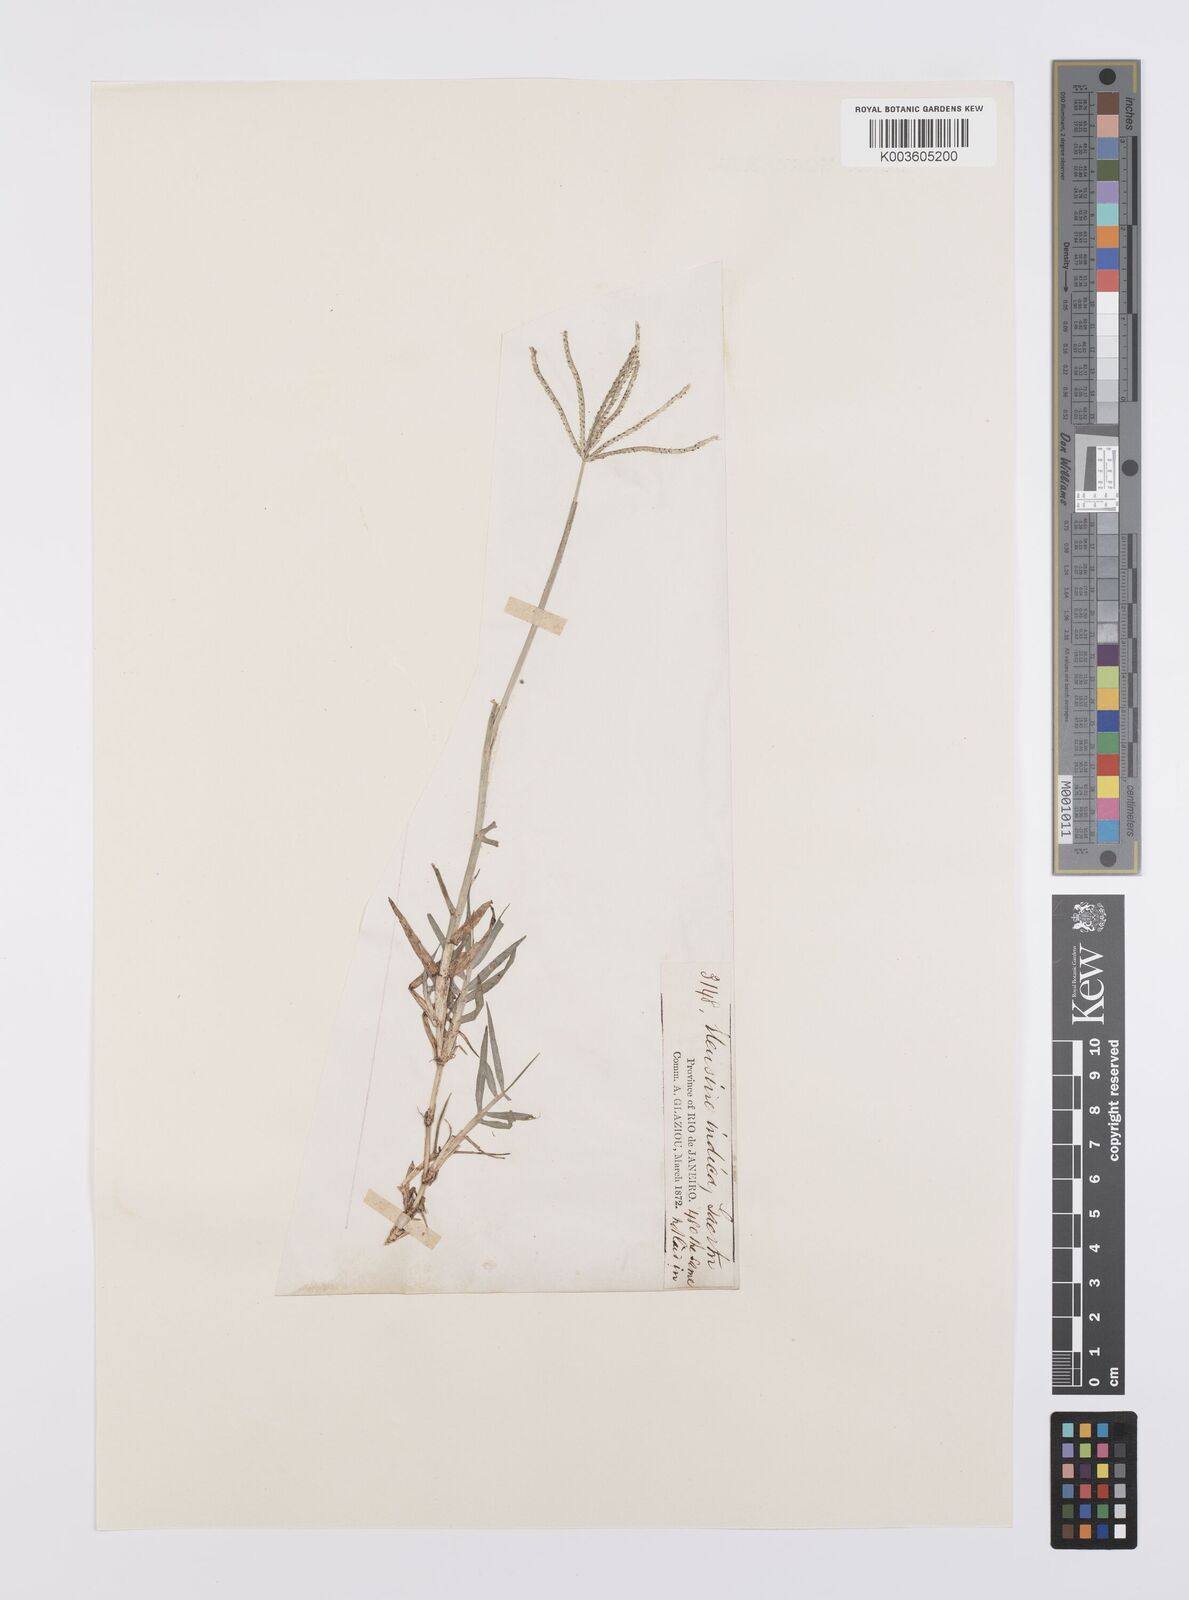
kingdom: Plantae
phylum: Tracheophyta
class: Liliopsida
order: Poales
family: Poaceae
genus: Cynodon
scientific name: Cynodon dactylon
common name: Bermuda grass
